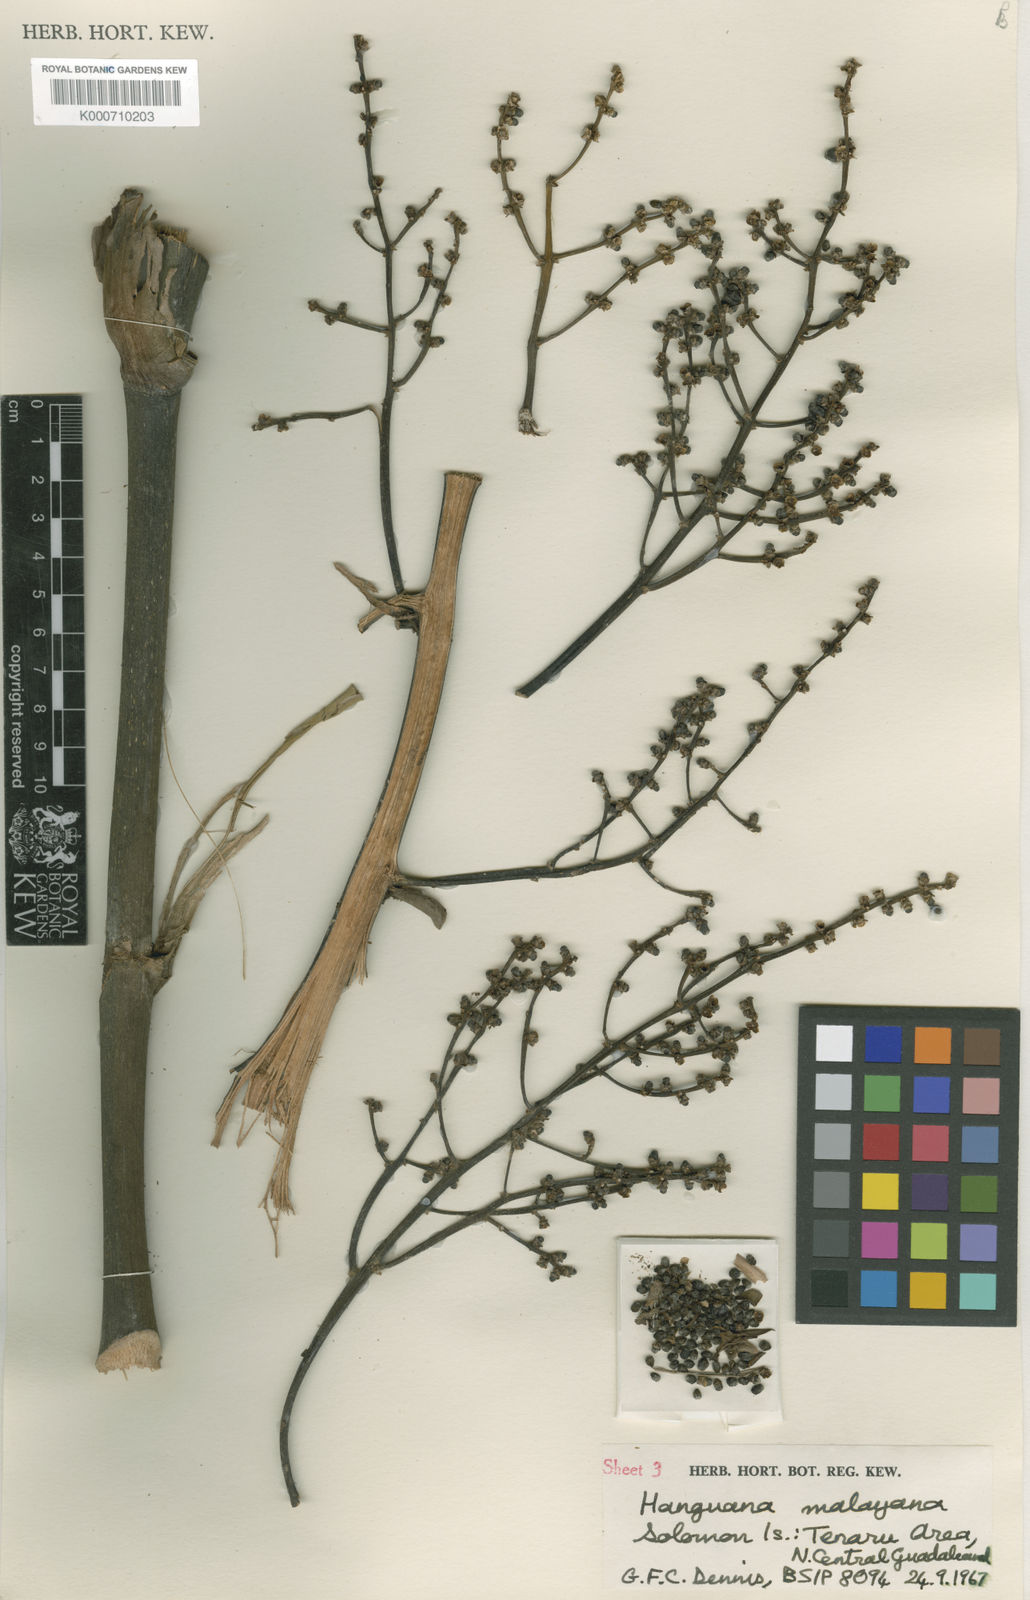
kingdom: Plantae
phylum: Tracheophyta
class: Liliopsida
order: Commelinales
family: Hanguanaceae
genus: Hanguana
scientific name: Hanguana malayana
